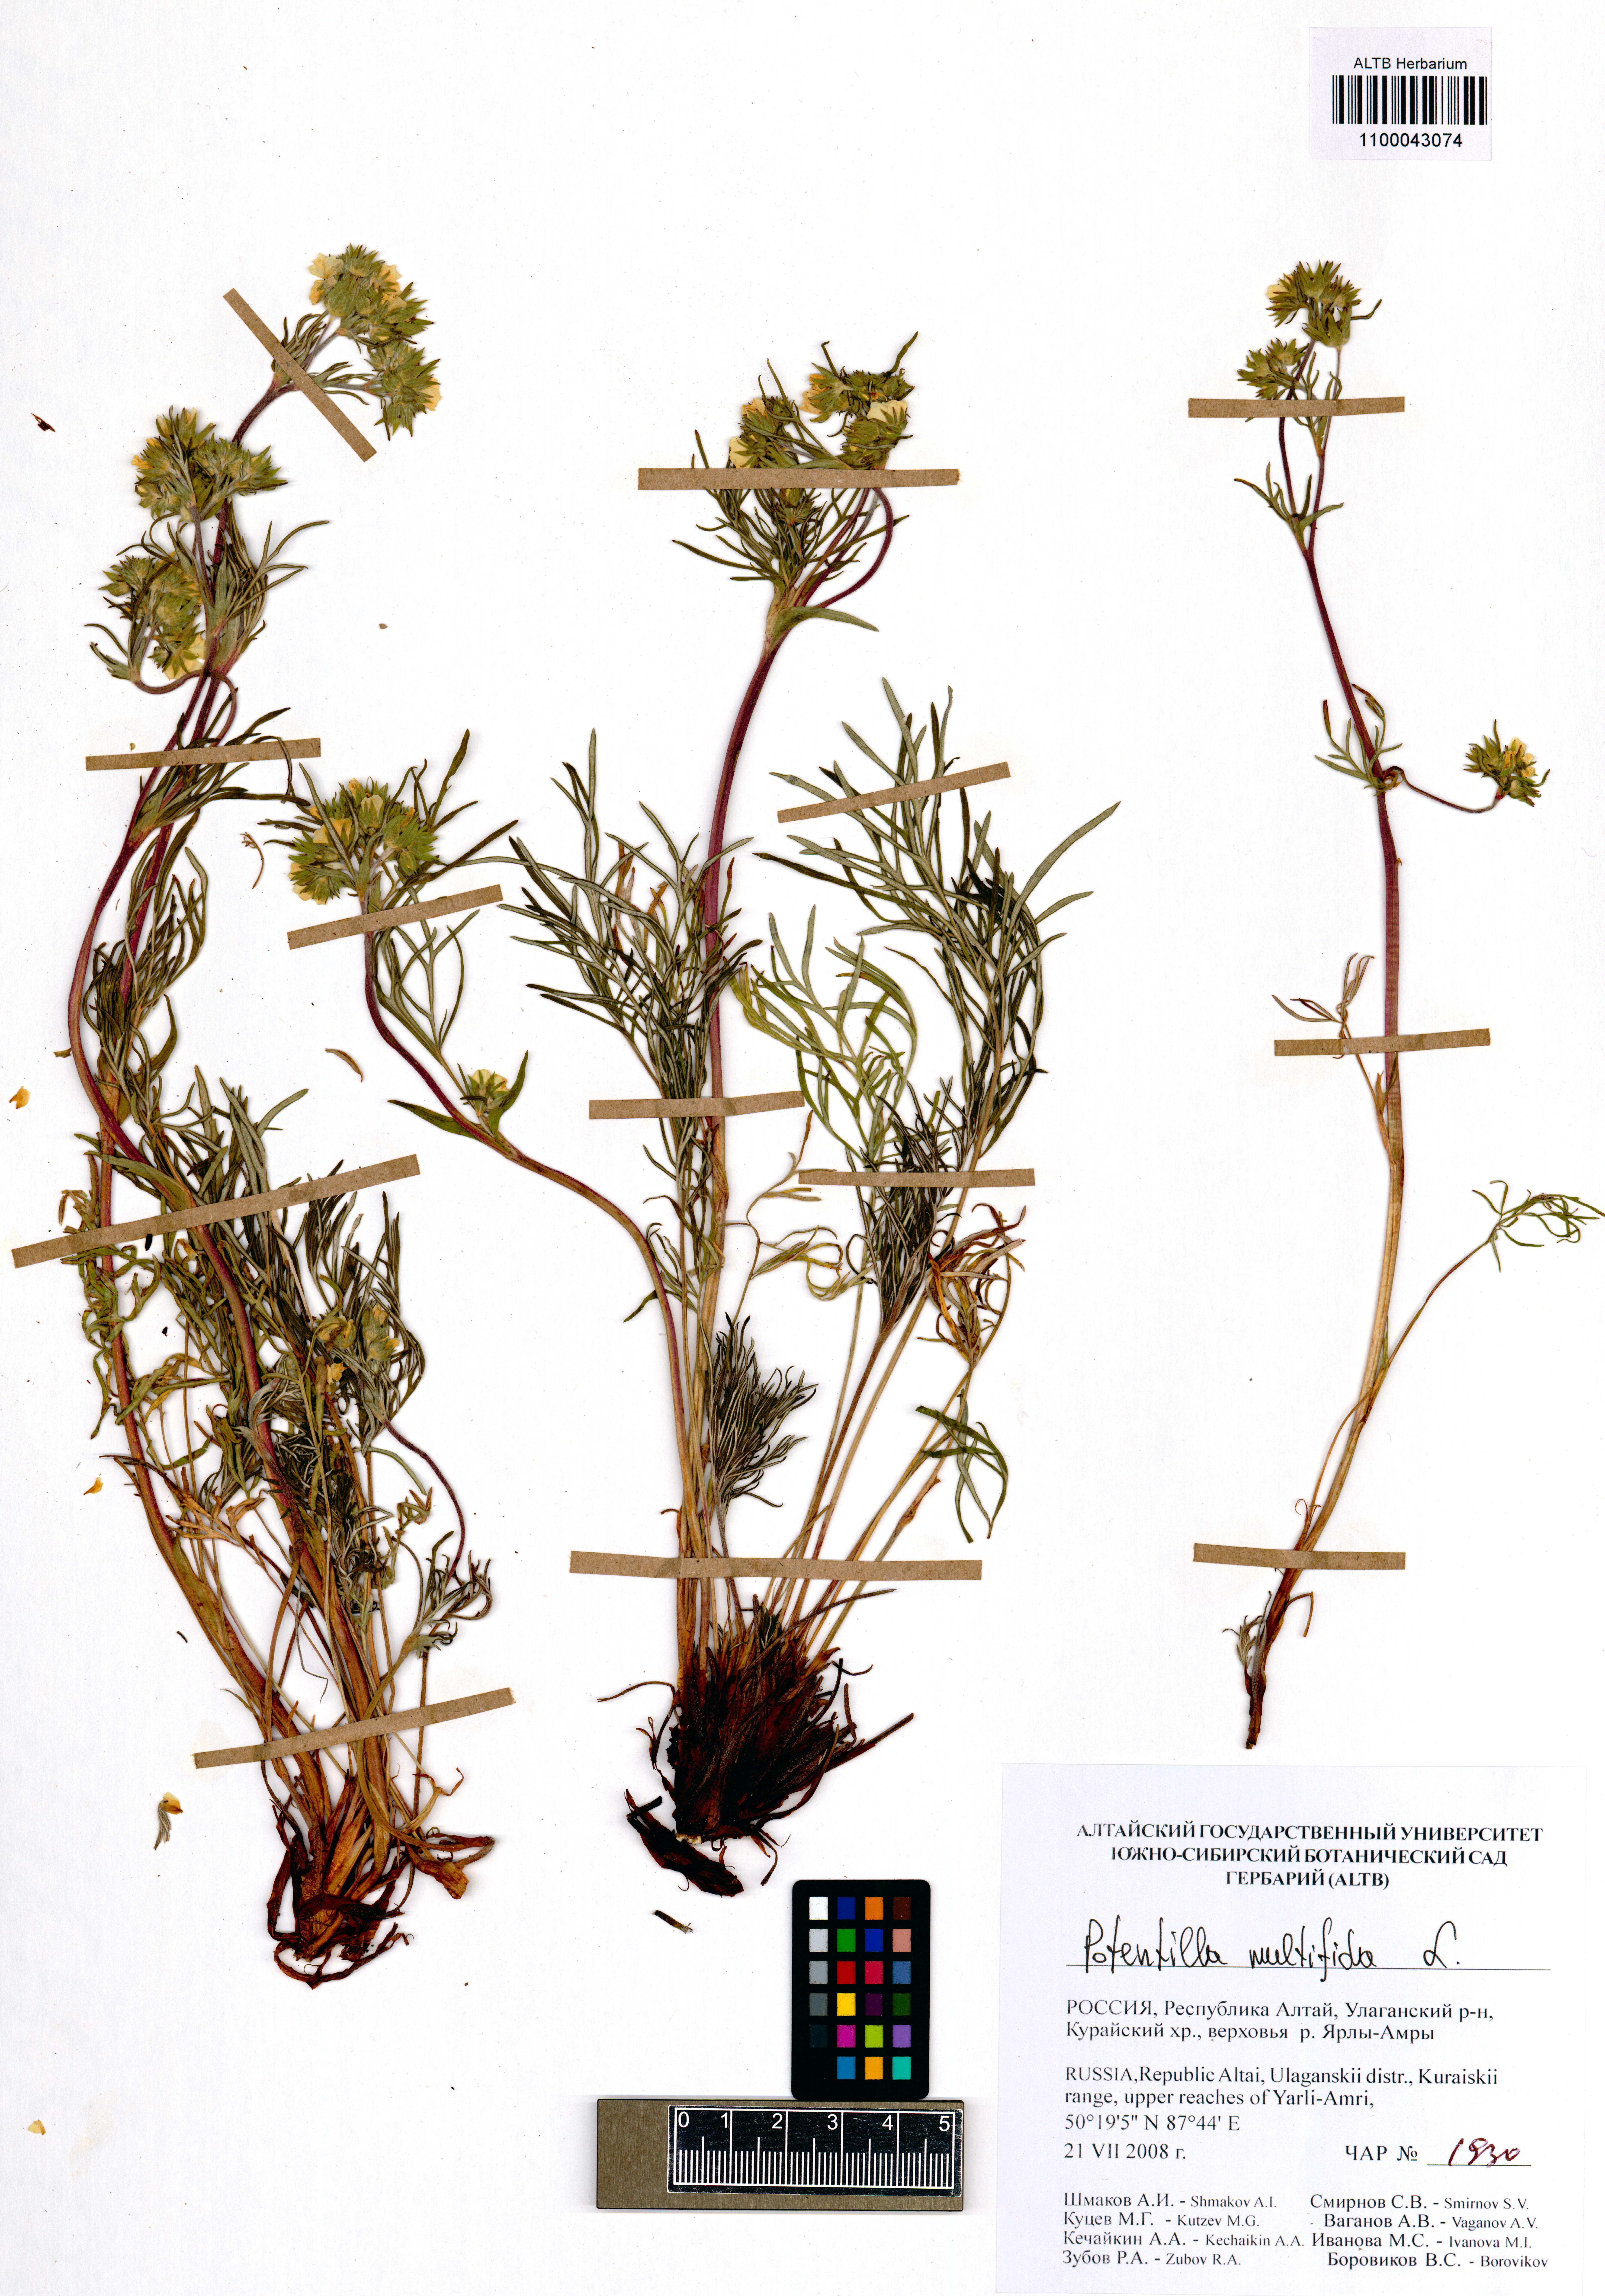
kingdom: Plantae
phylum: Tracheophyta
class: Magnoliopsida
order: Rosales
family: Rosaceae
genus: Potentilla
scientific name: Potentilla multifida
